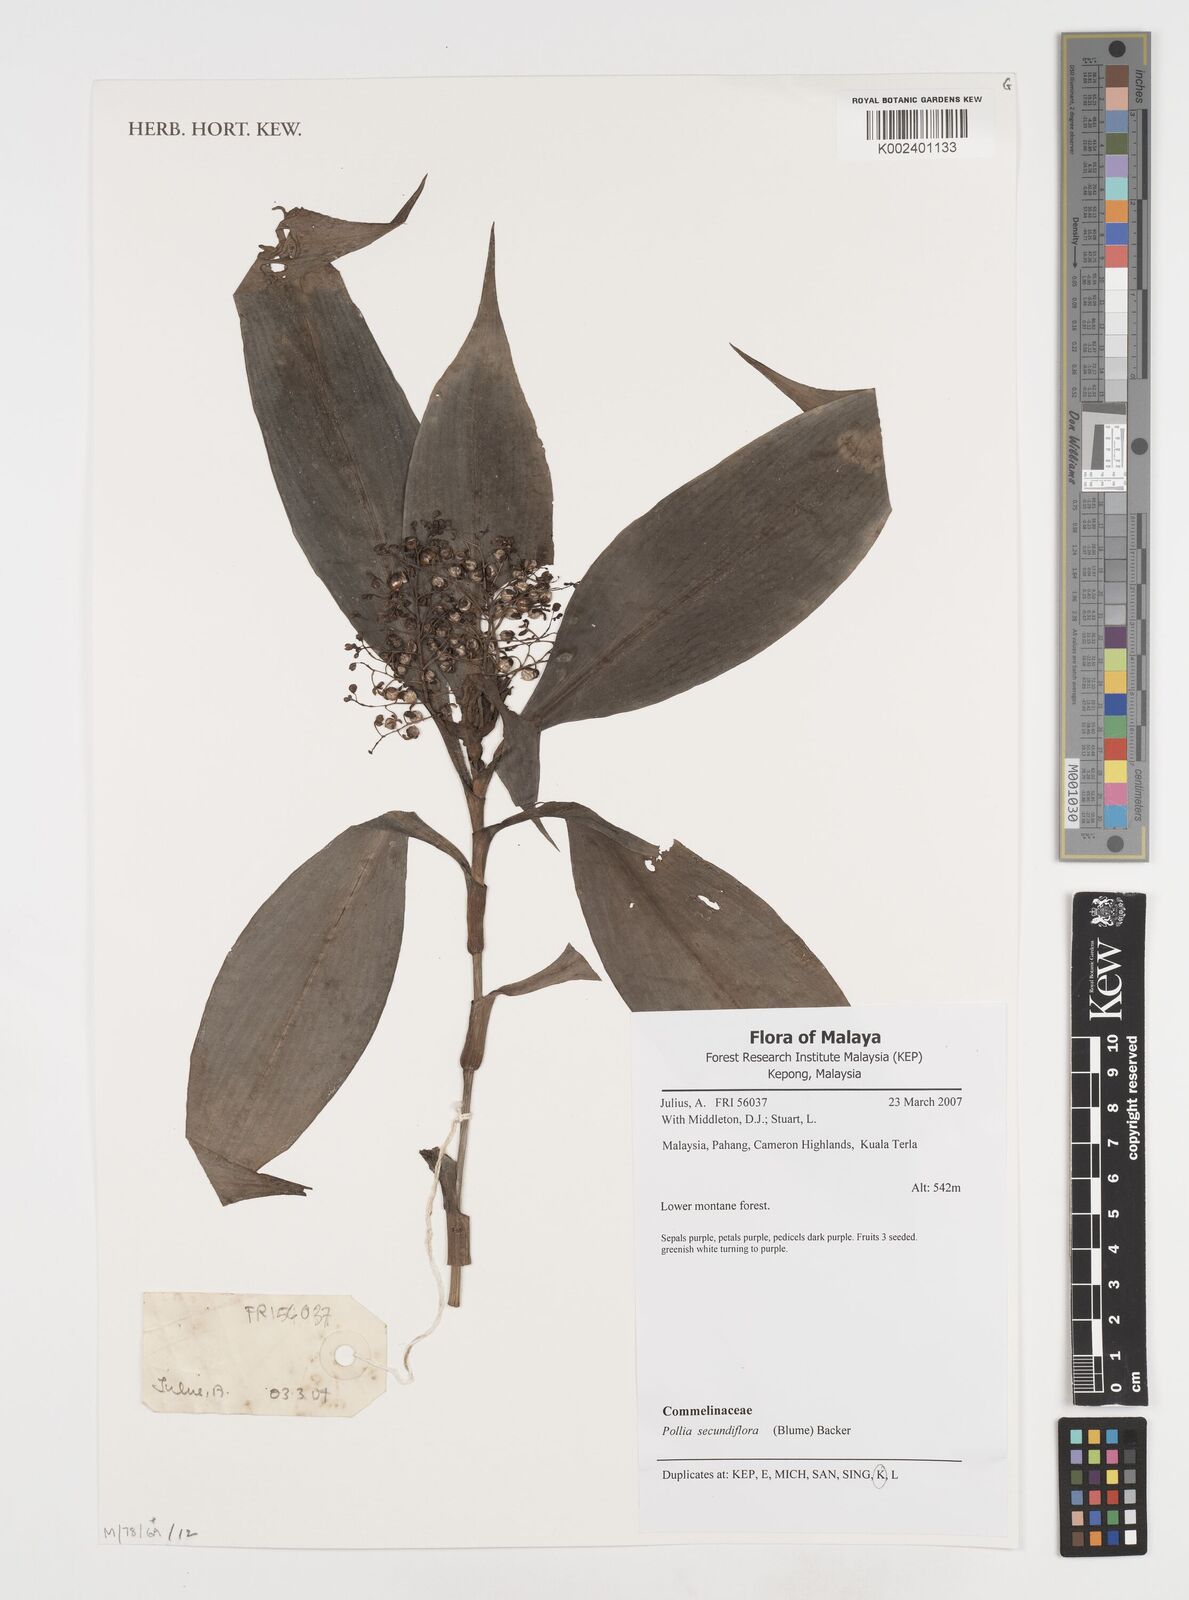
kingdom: Plantae
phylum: Tracheophyta
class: Liliopsida
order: Commelinales
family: Commelinaceae
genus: Pollia
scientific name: Pollia secundiflora
